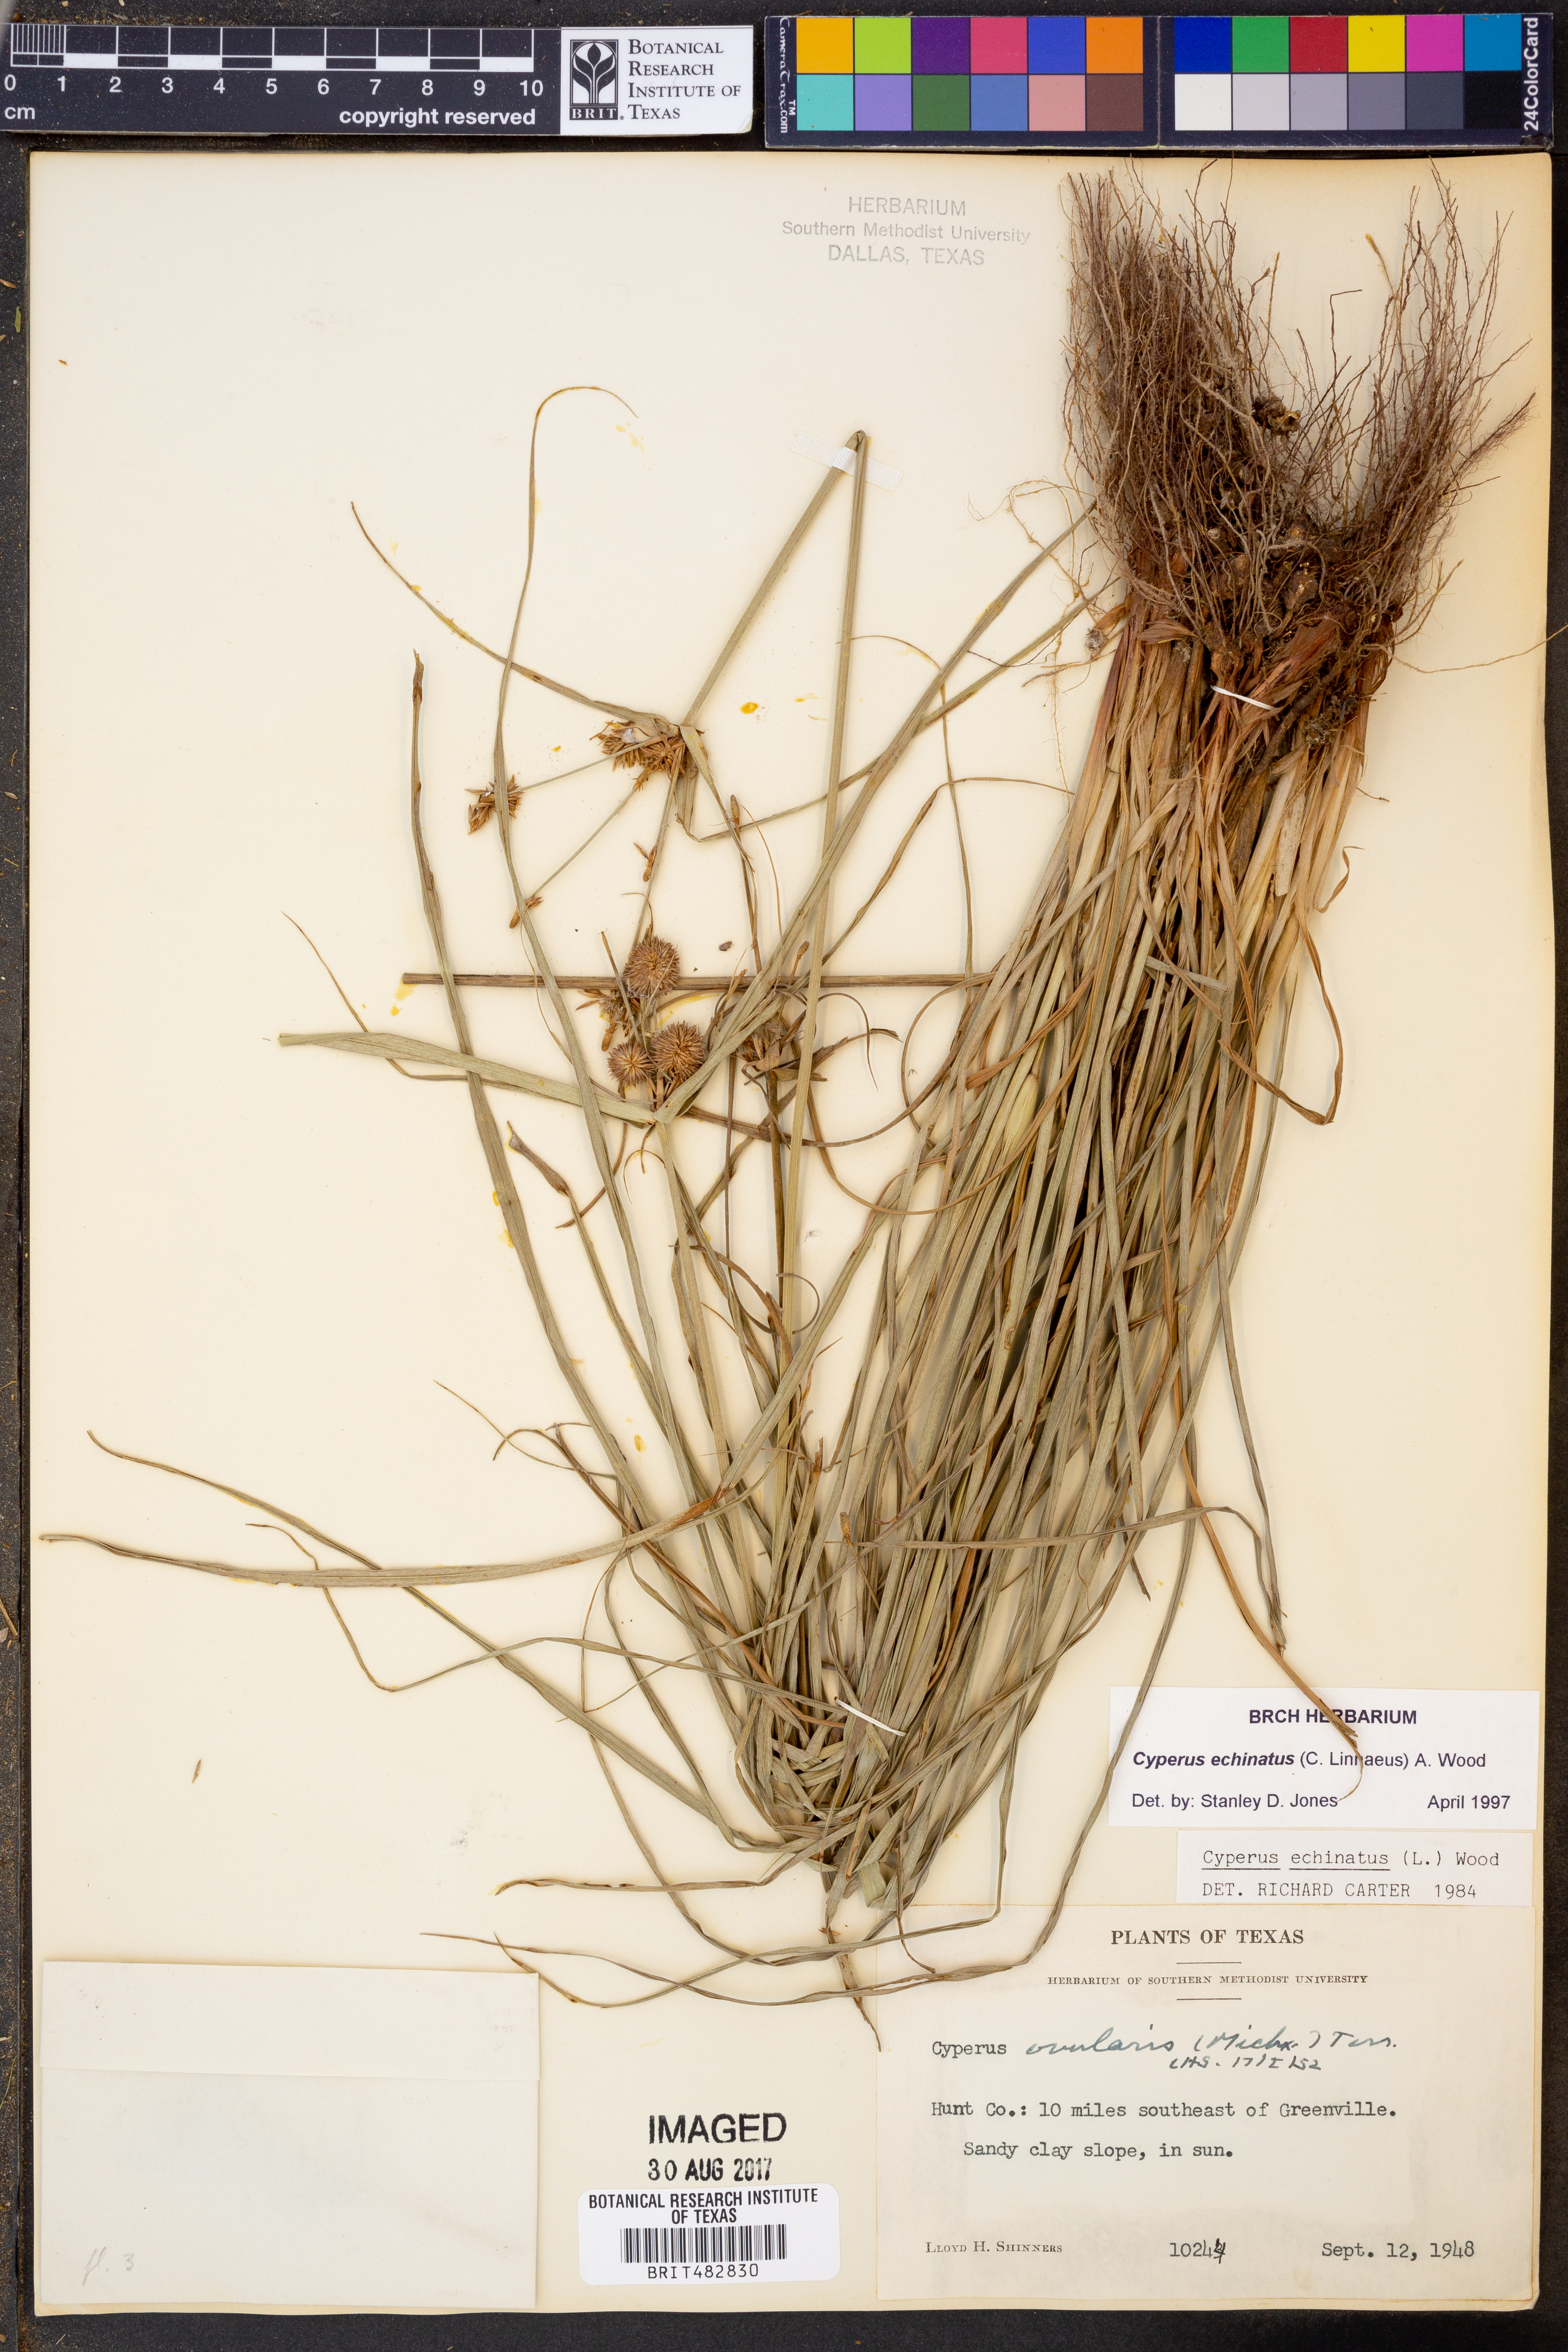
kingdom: Plantae
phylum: Tracheophyta
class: Liliopsida
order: Poales
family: Cyperaceae
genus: Cyperus
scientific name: Cyperus echinatus
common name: Teasel sedge
